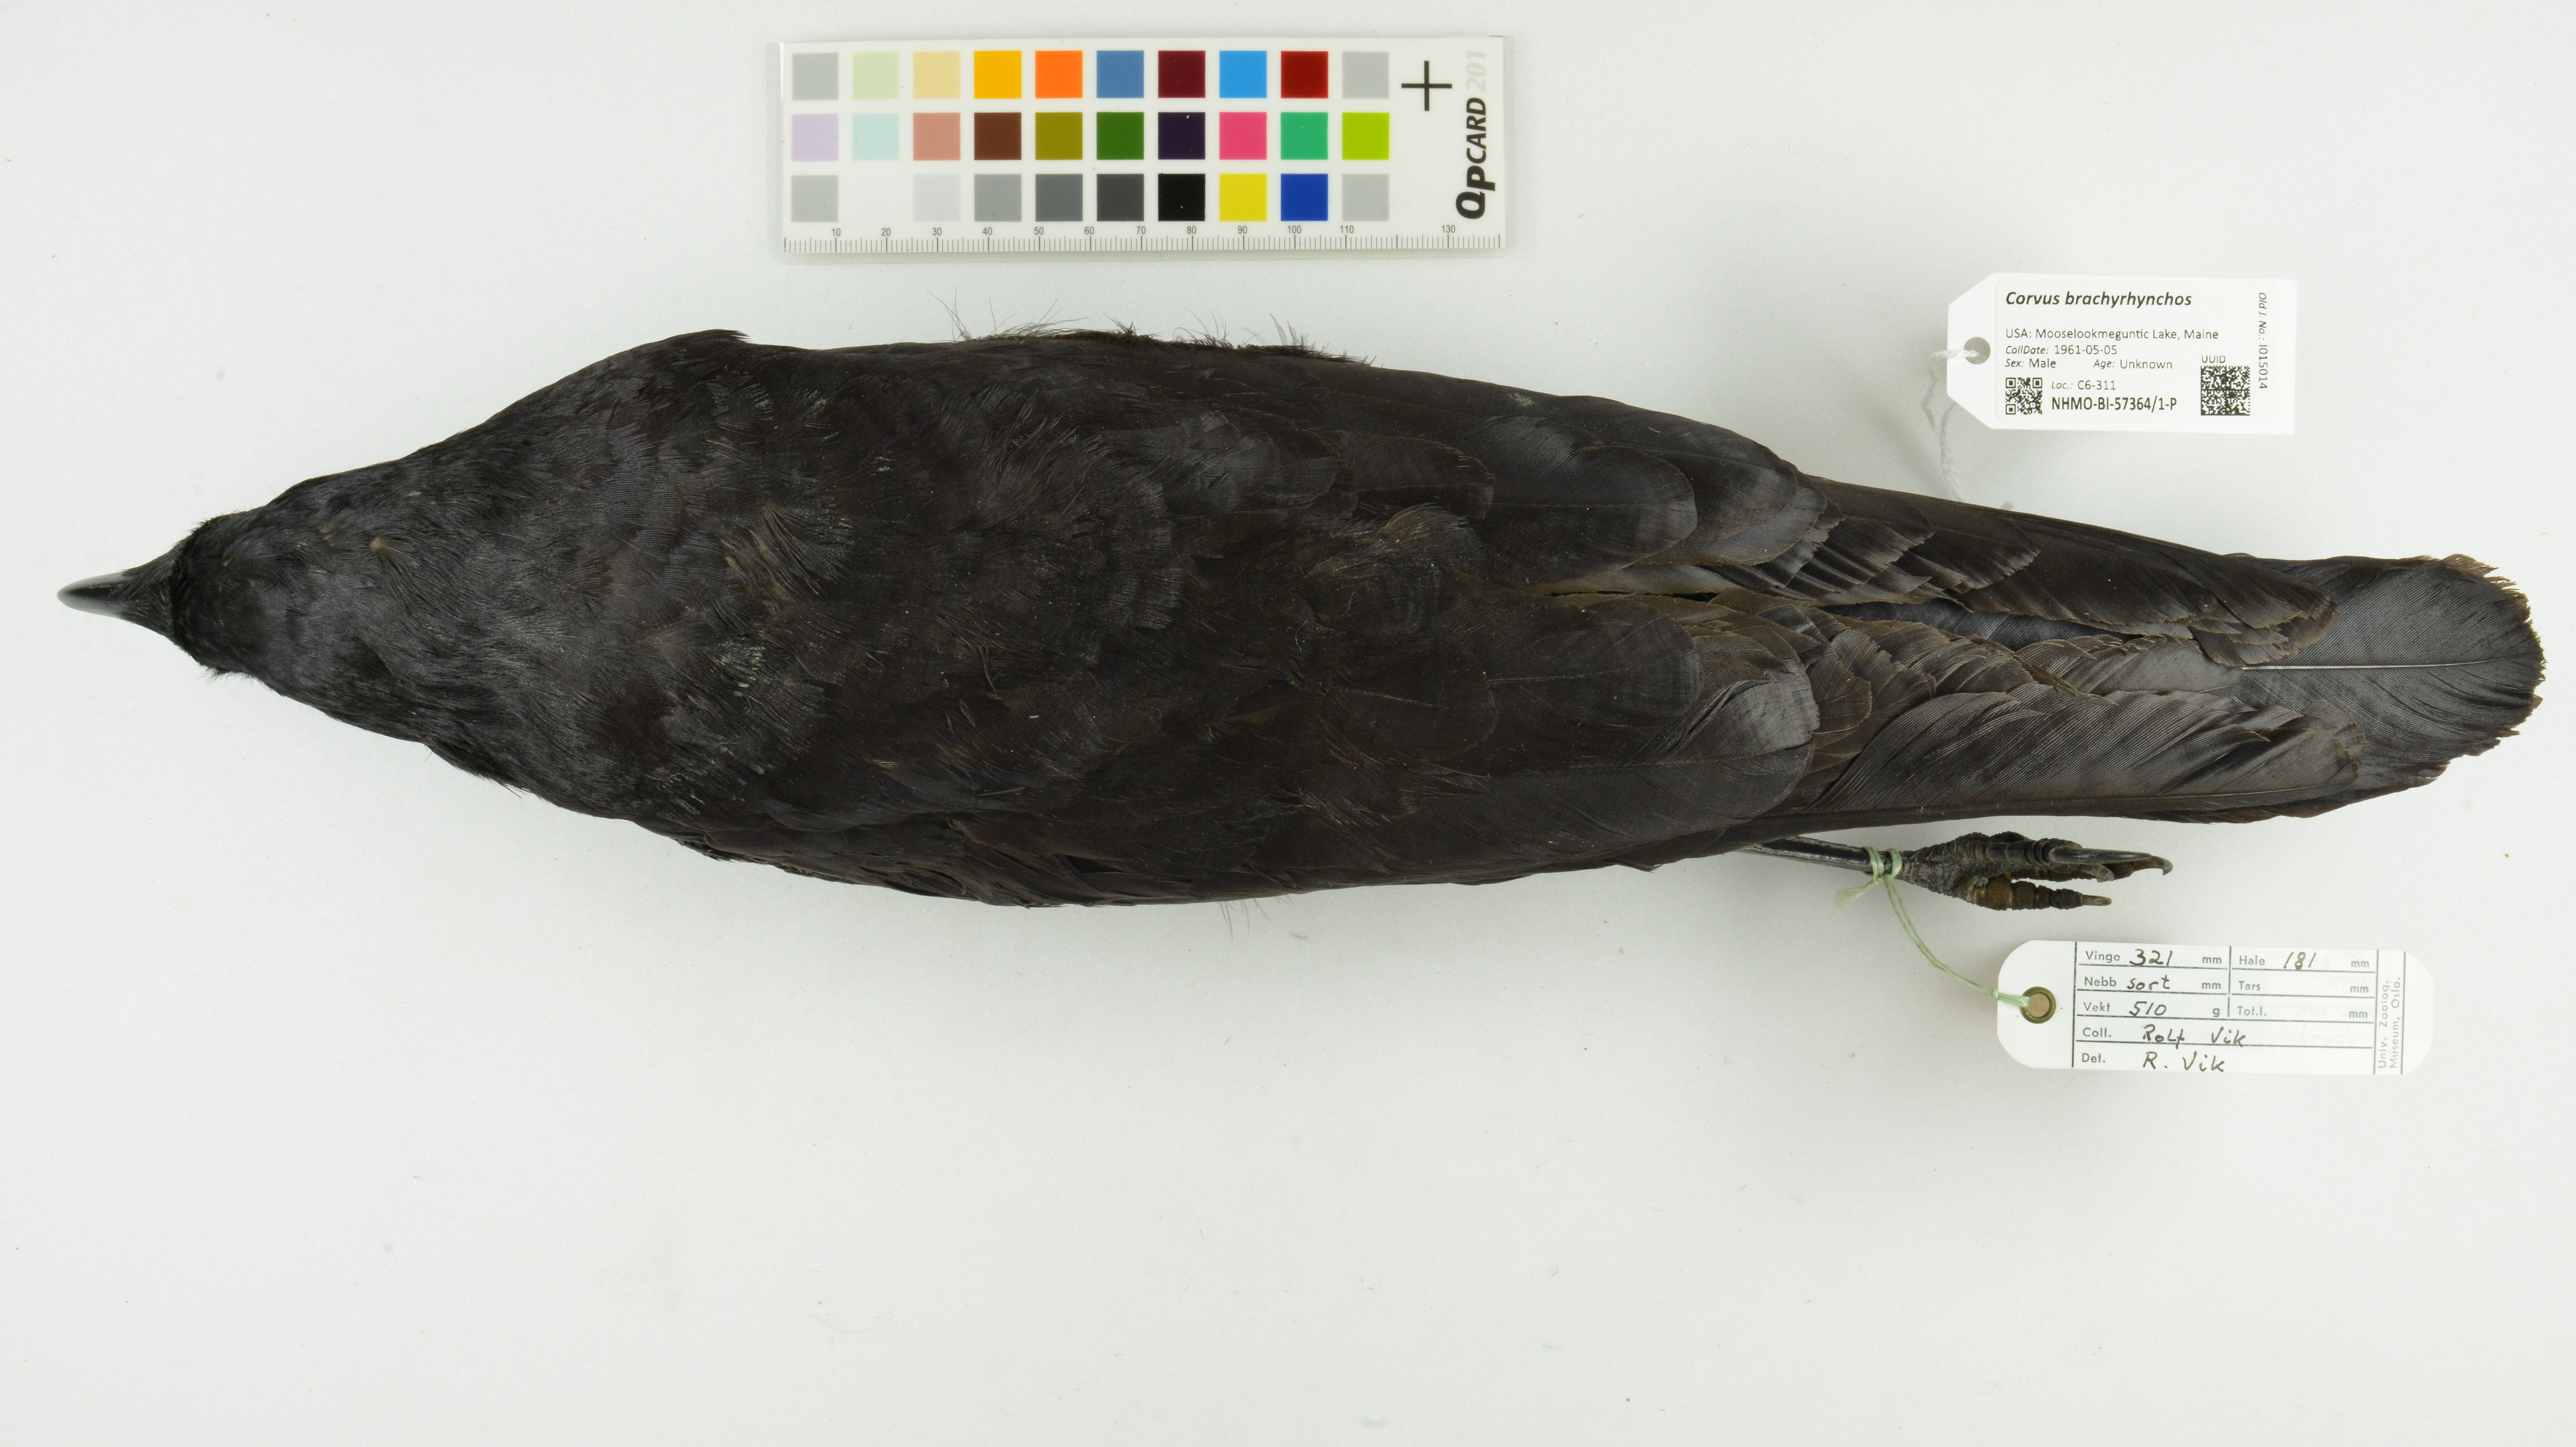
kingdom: Animalia
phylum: Chordata
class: Aves
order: Passeriformes
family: Corvidae
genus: Corvus
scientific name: Corvus brachyrhynchos
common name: American crow
